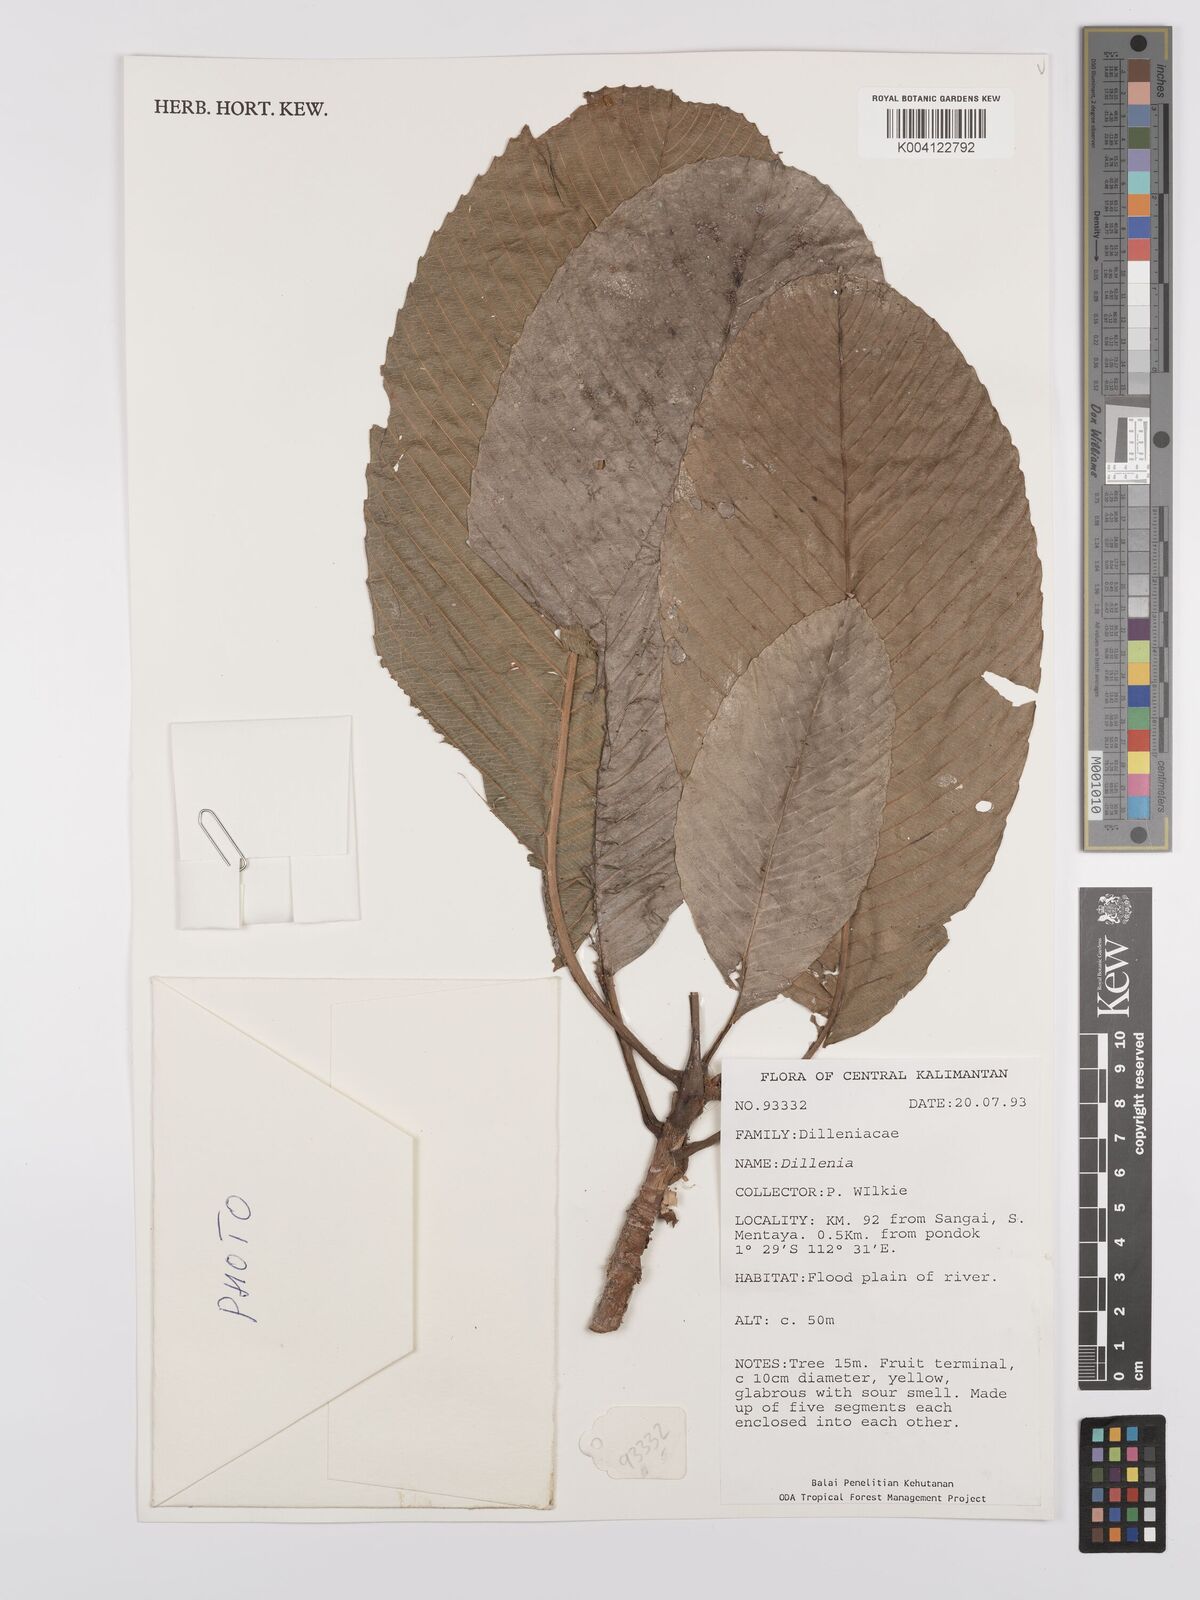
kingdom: Plantae
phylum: Tracheophyta
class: Magnoliopsida
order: Dilleniales
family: Dilleniaceae
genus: Dillenia
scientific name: Dillenia
